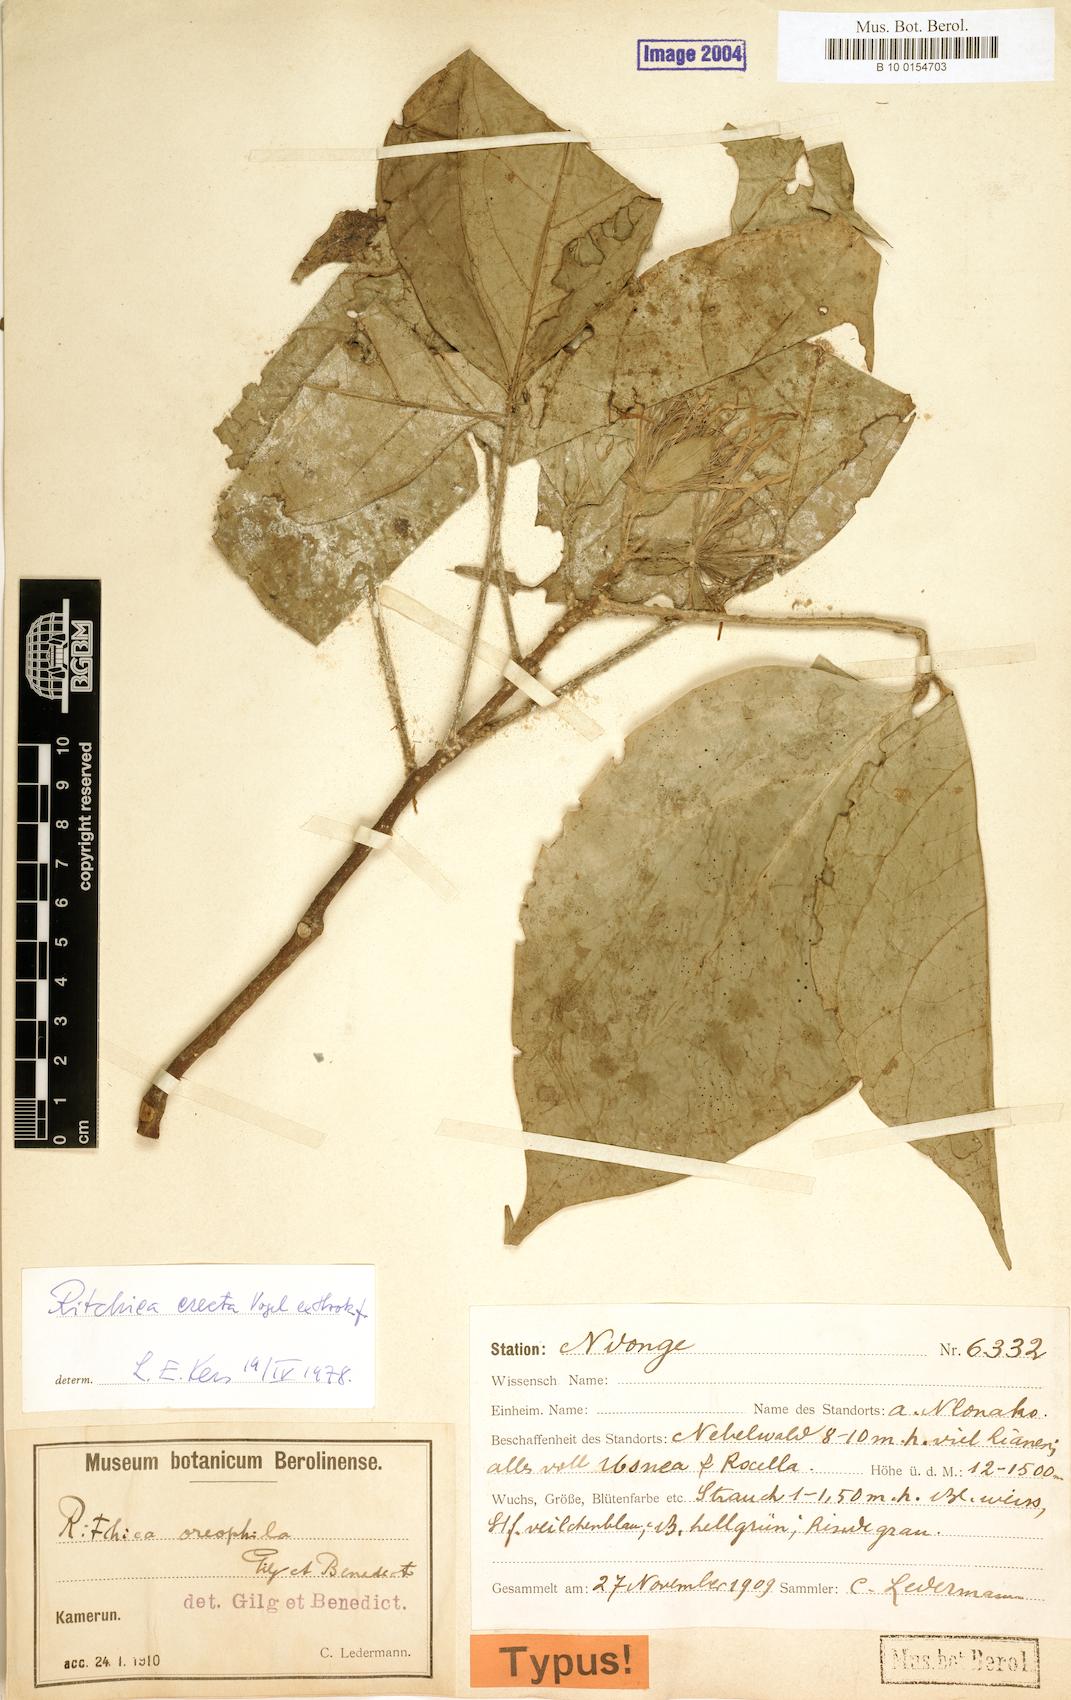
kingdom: Plantae
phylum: Tracheophyta
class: Magnoliopsida
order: Brassicales
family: Capparaceae
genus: Ritchiea
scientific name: Ritchiea erecta
